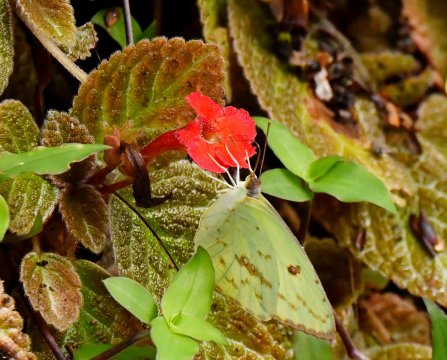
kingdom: Animalia
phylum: Arthropoda
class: Insecta
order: Lepidoptera
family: Pieridae
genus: Phoebis
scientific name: Phoebis sennae
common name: Cloudless Sulphur
